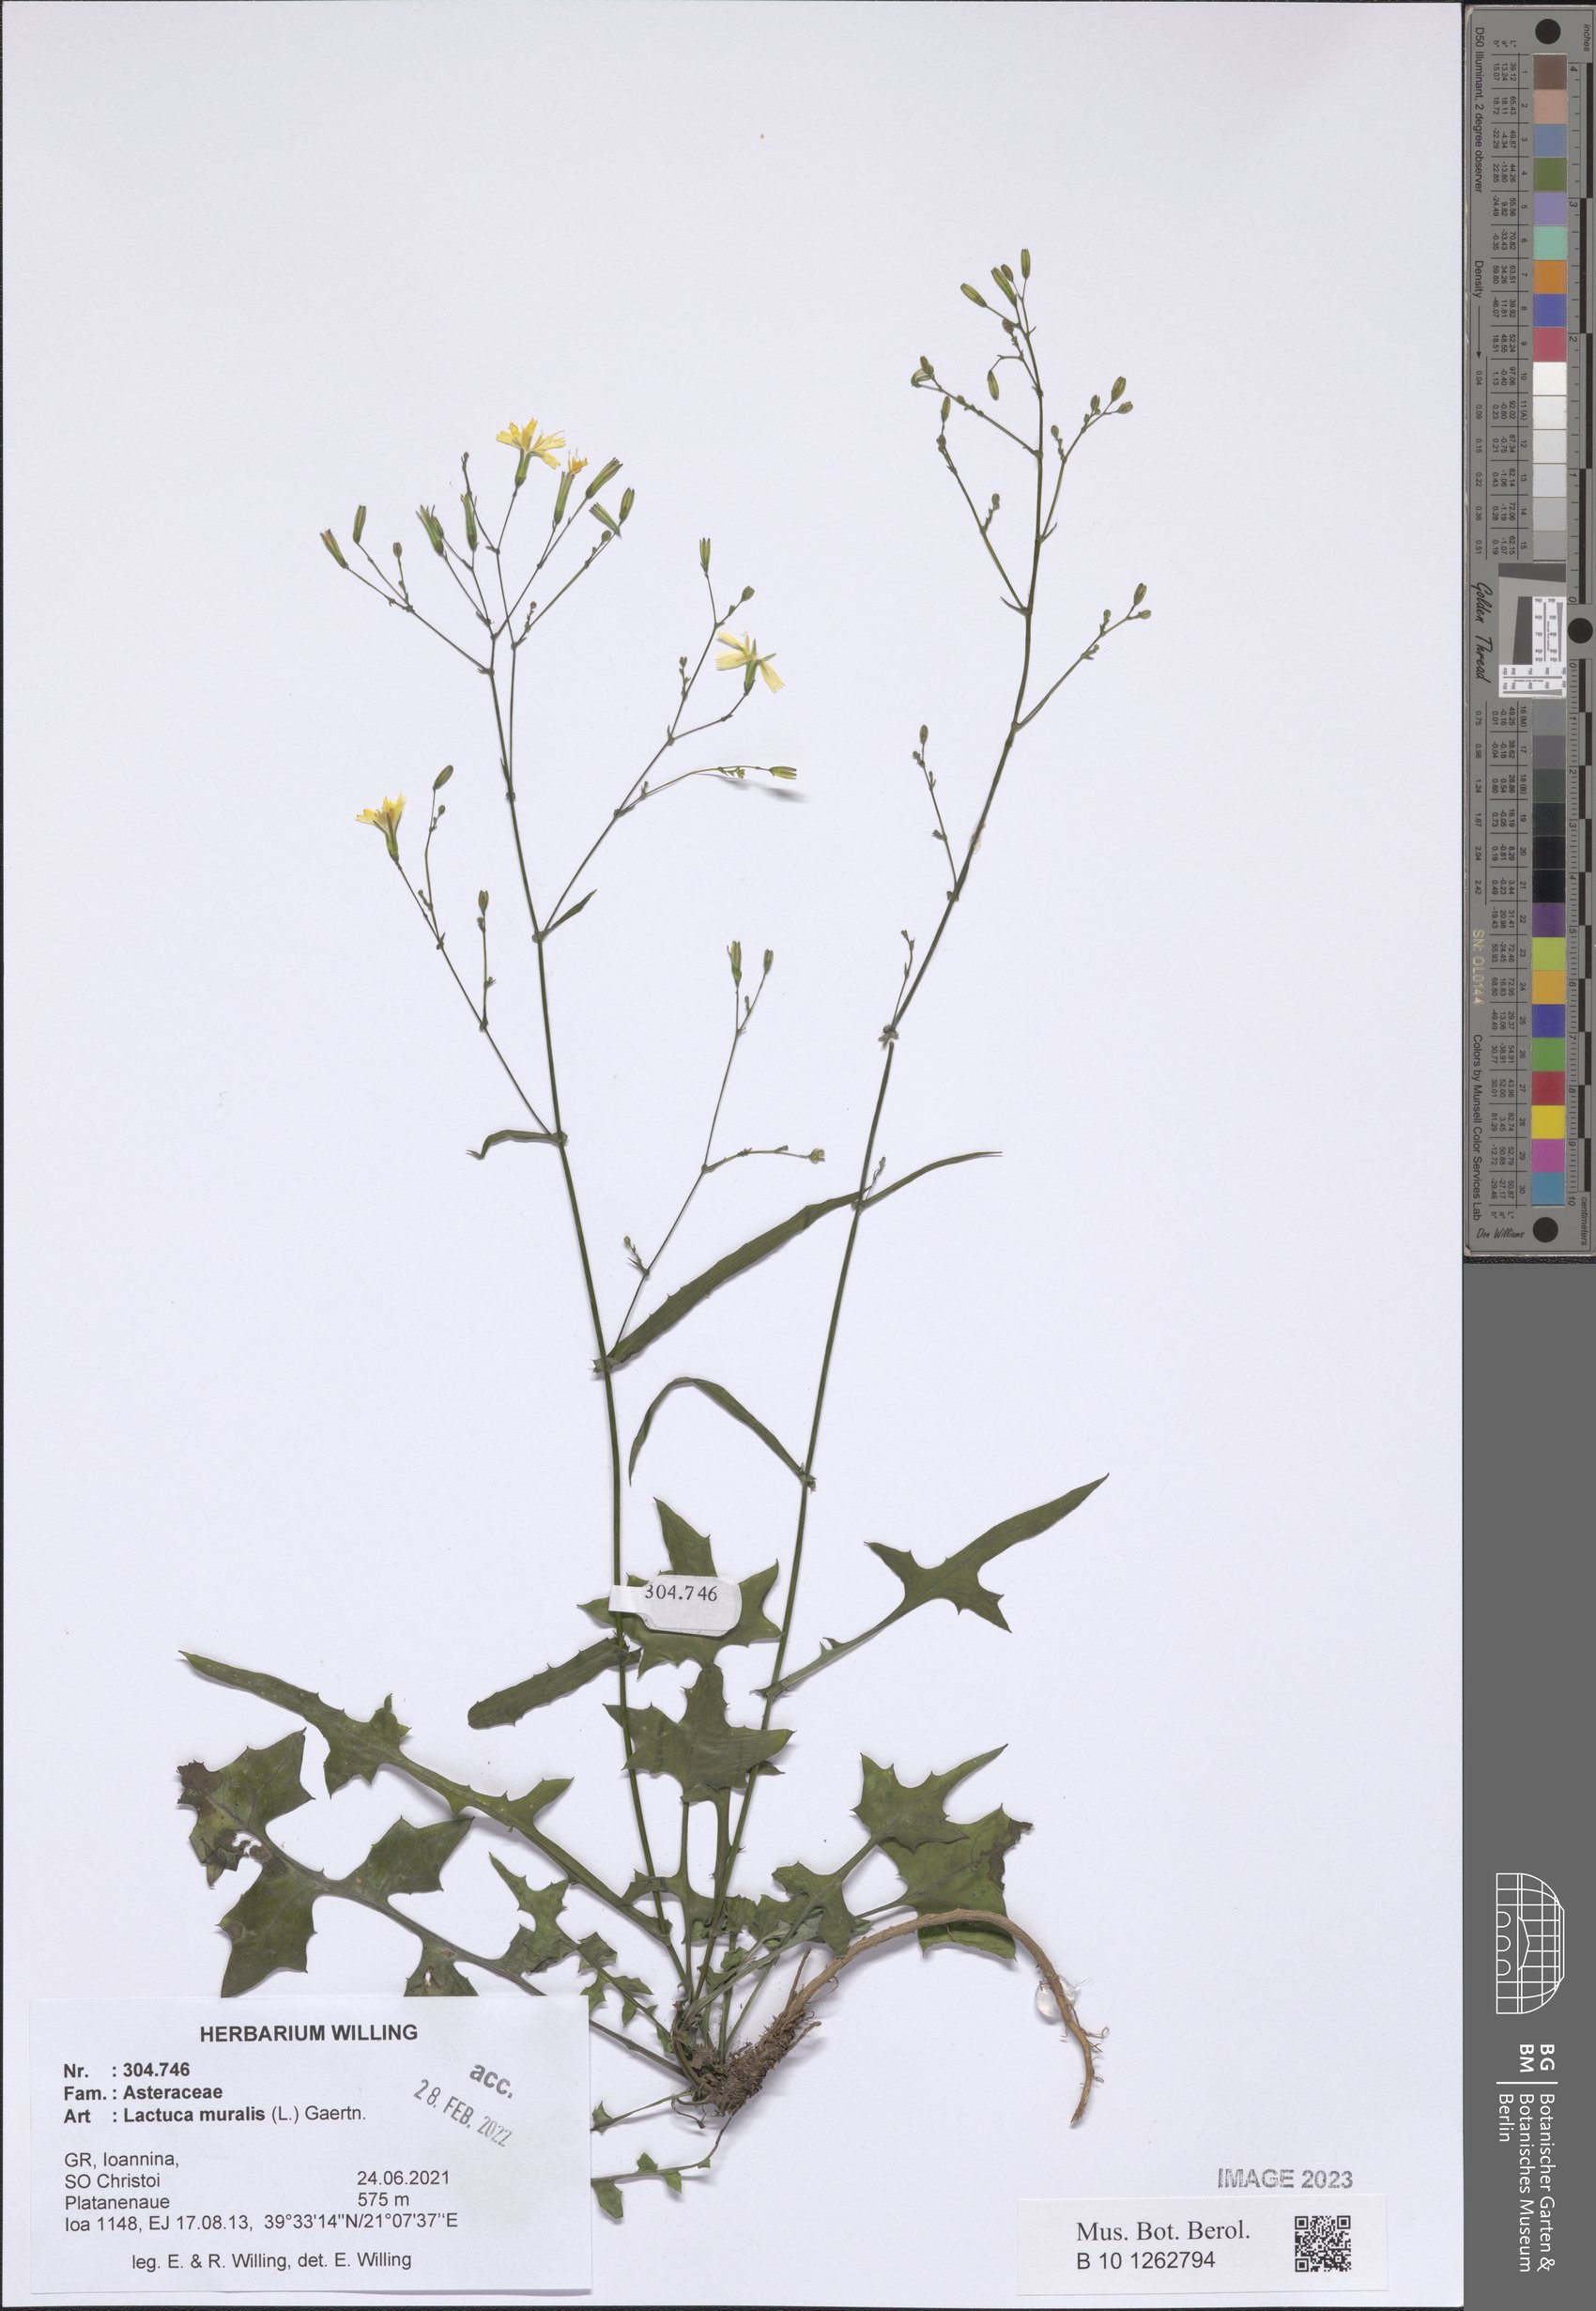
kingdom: Plantae
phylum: Tracheophyta
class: Magnoliopsida
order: Asterales
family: Asteraceae
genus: Mycelis
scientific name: Mycelis muralis
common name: Wall lettuce
